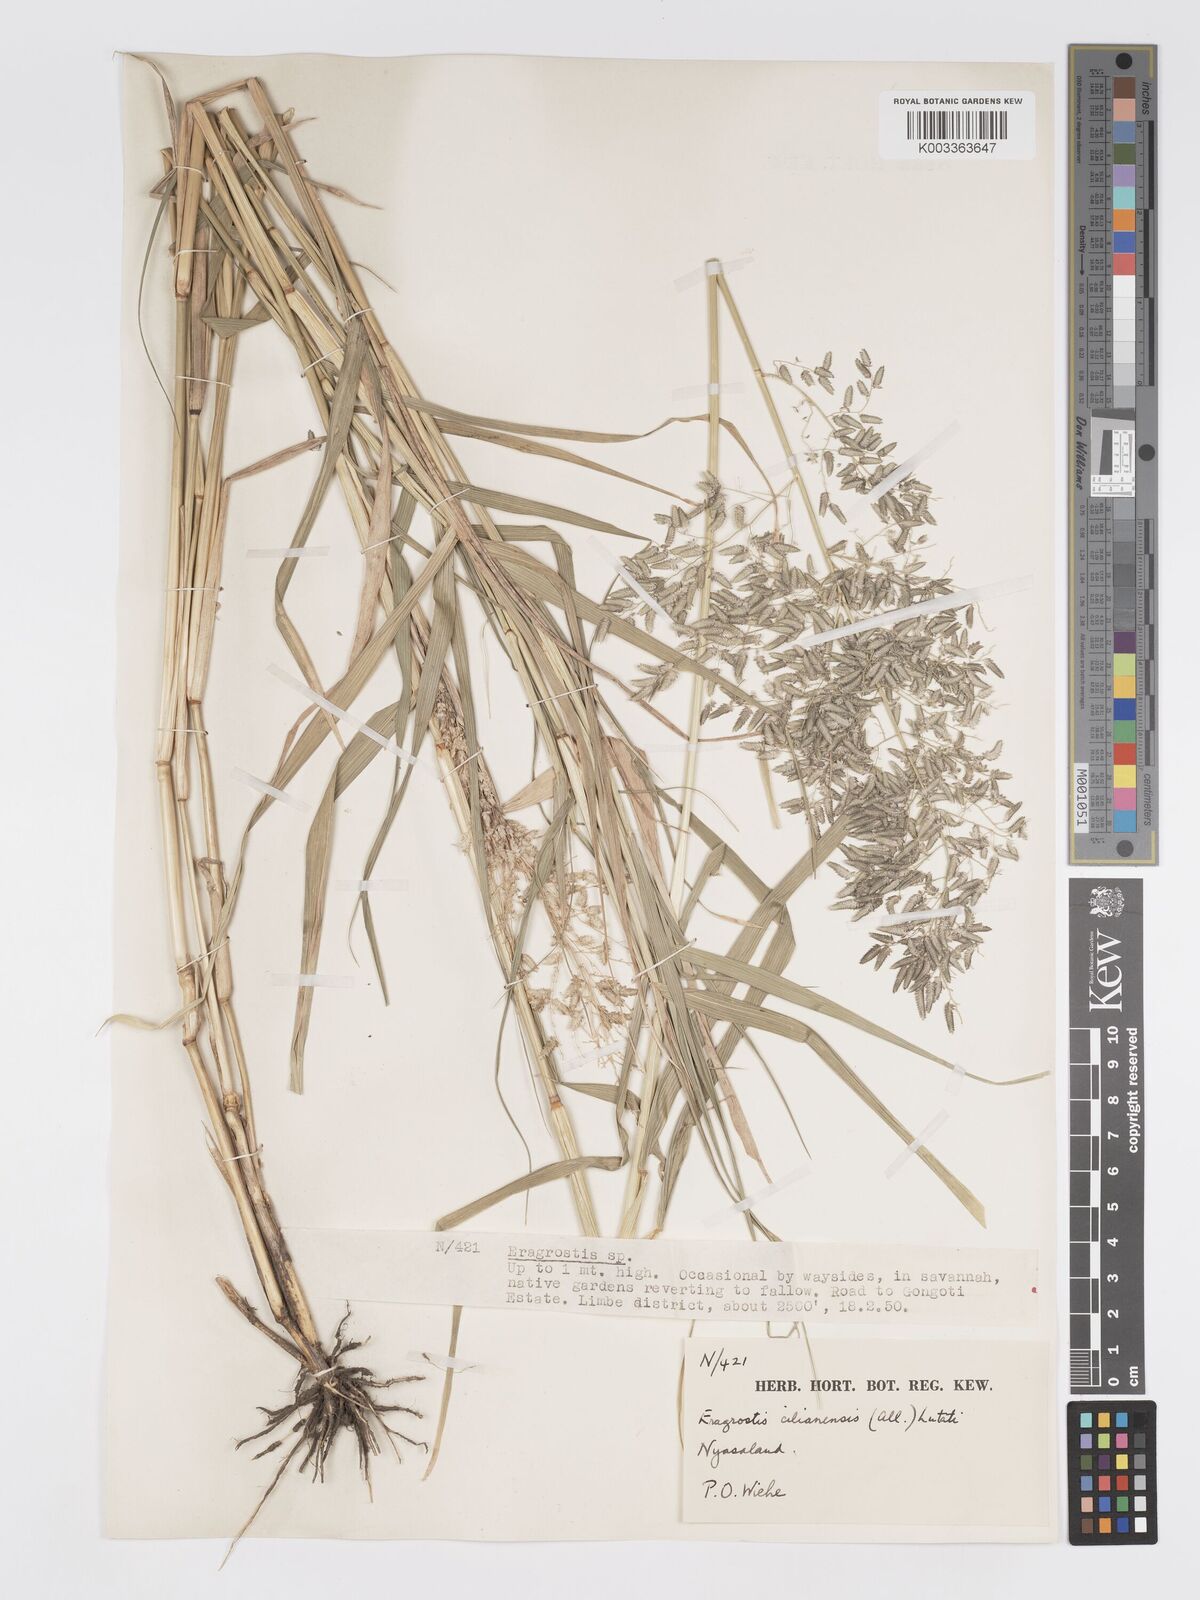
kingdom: Plantae
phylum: Tracheophyta
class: Liliopsida
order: Poales
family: Poaceae
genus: Eragrostis
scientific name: Eragrostis cilianensis
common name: Stinkgrass
